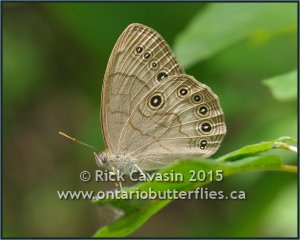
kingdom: Animalia
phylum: Arthropoda
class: Insecta
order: Lepidoptera
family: Nymphalidae
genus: Lethe
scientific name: Lethe eurydice
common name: Appalachian Eyed Brown
